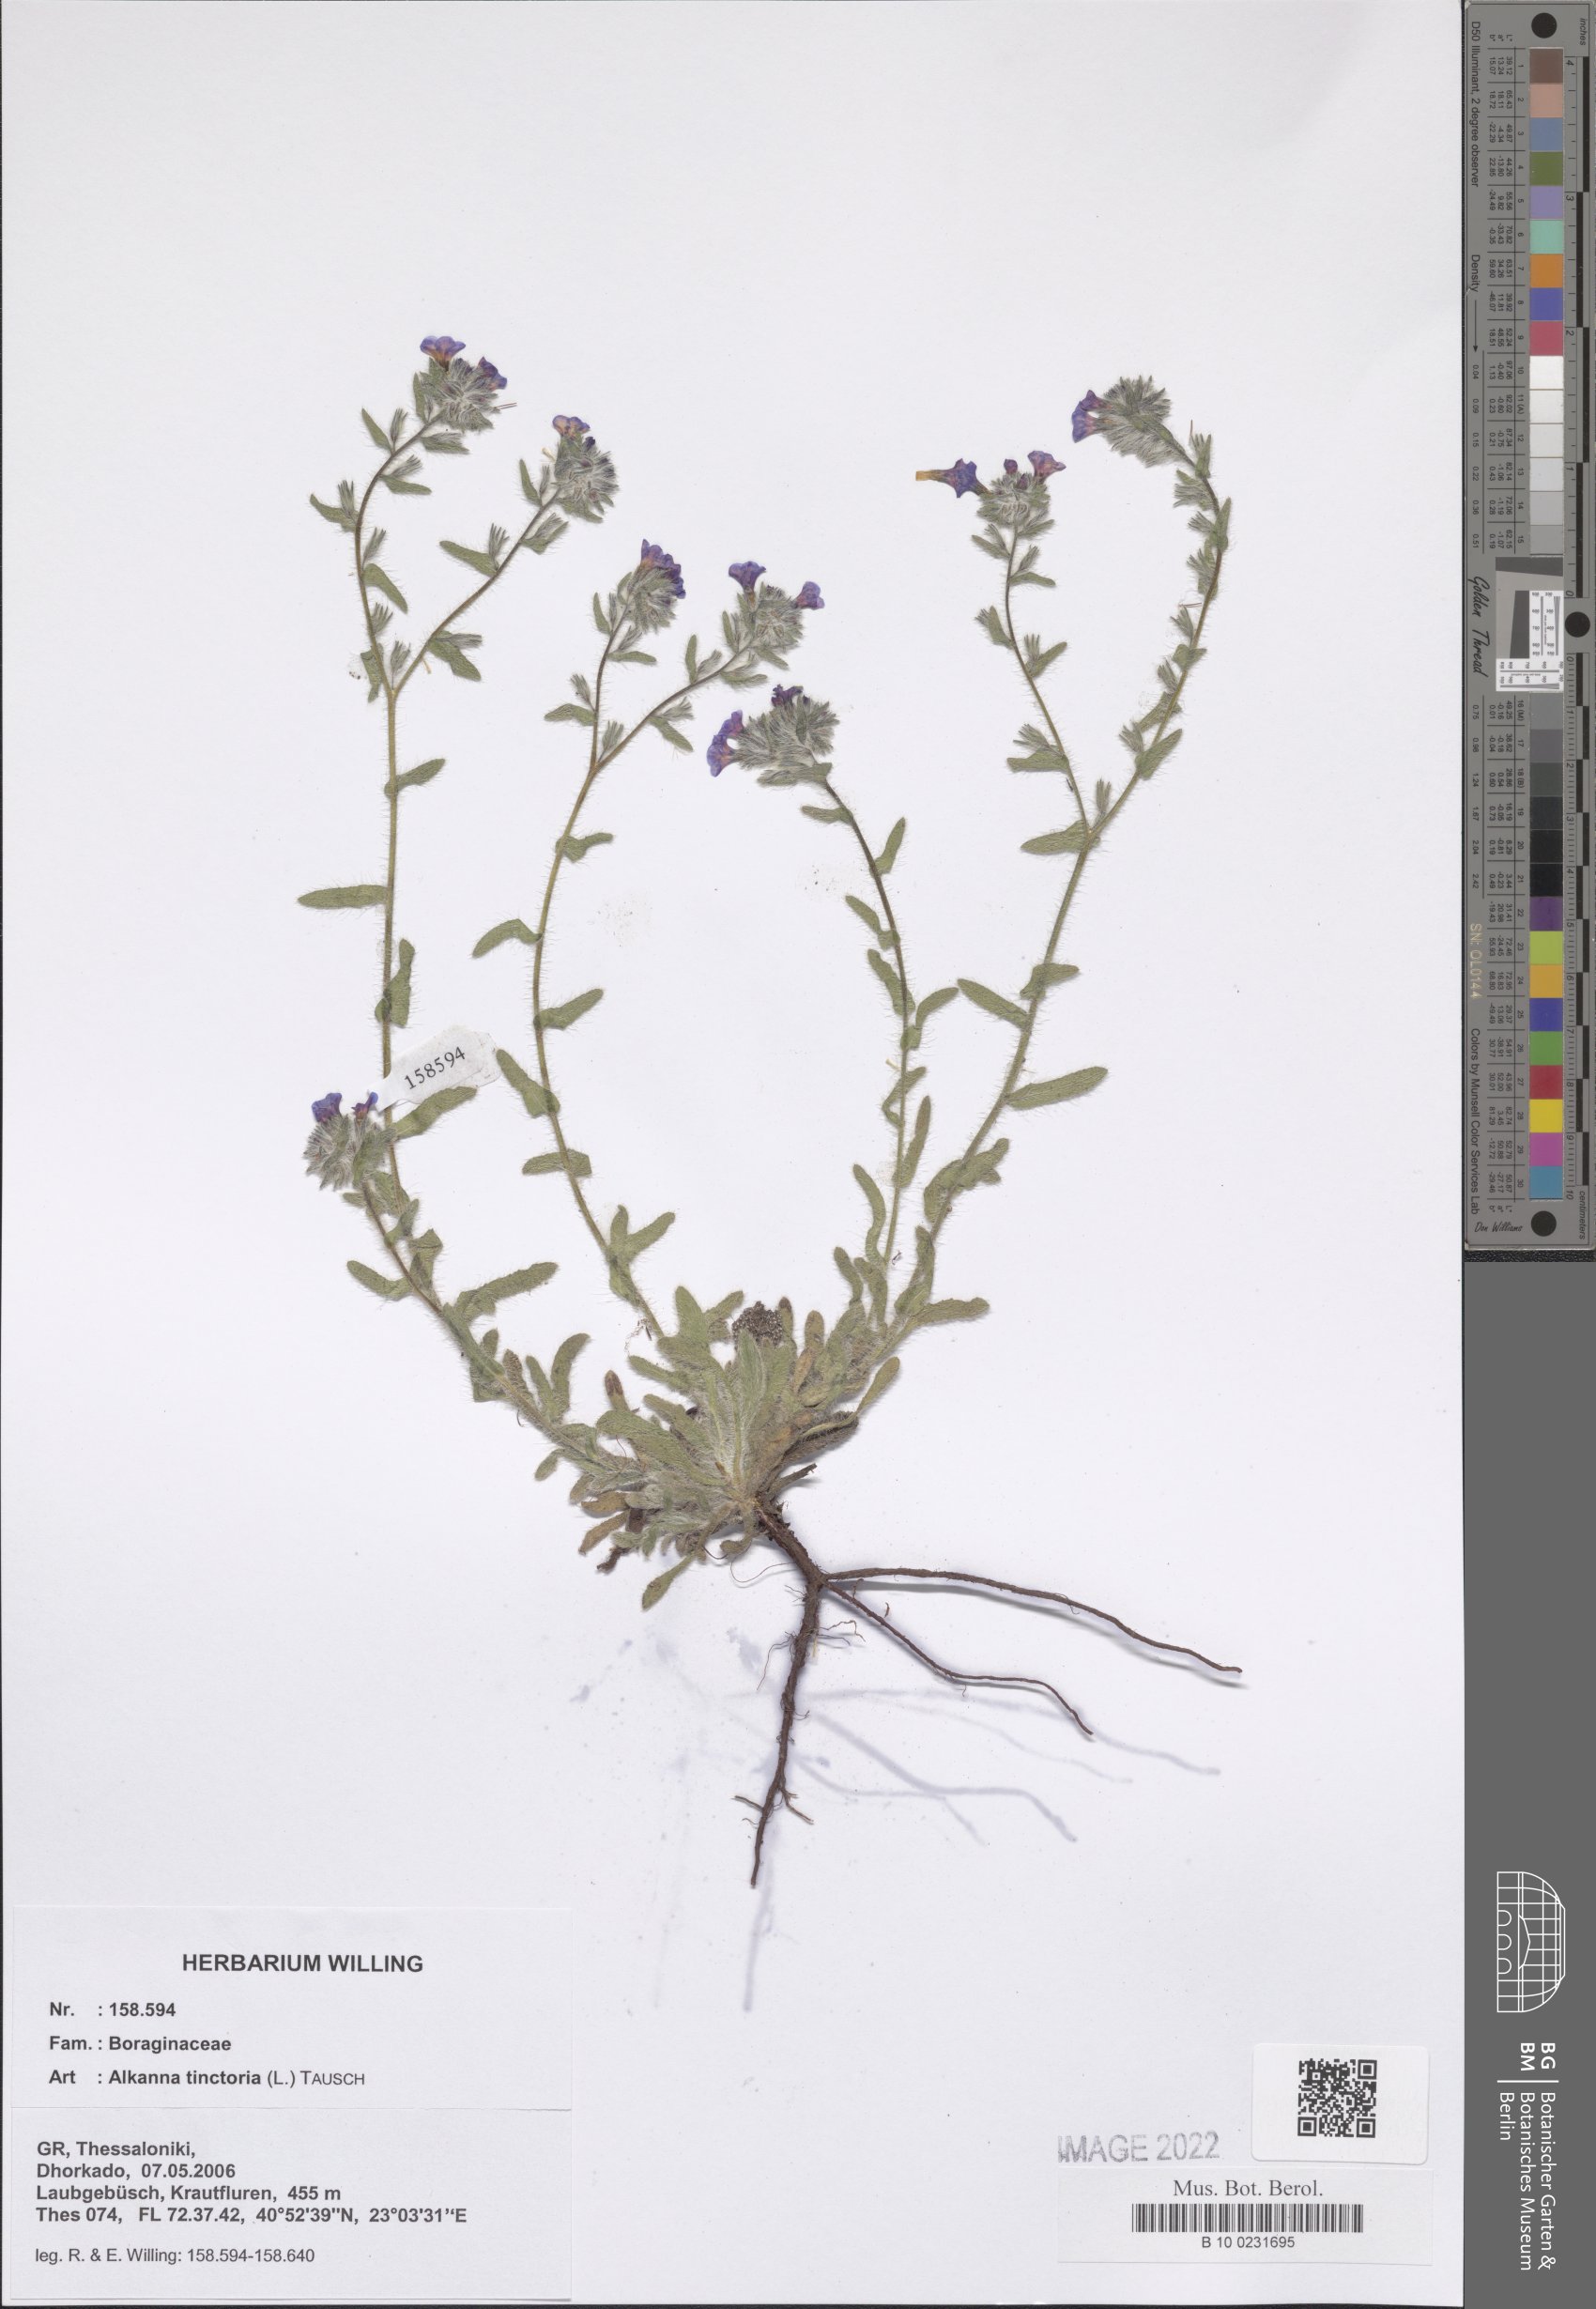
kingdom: Plantae
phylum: Tracheophyta
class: Magnoliopsida
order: Boraginales
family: Boraginaceae
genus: Alkanna
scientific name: Alkanna tinctoria
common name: Dyer's-alkanet
